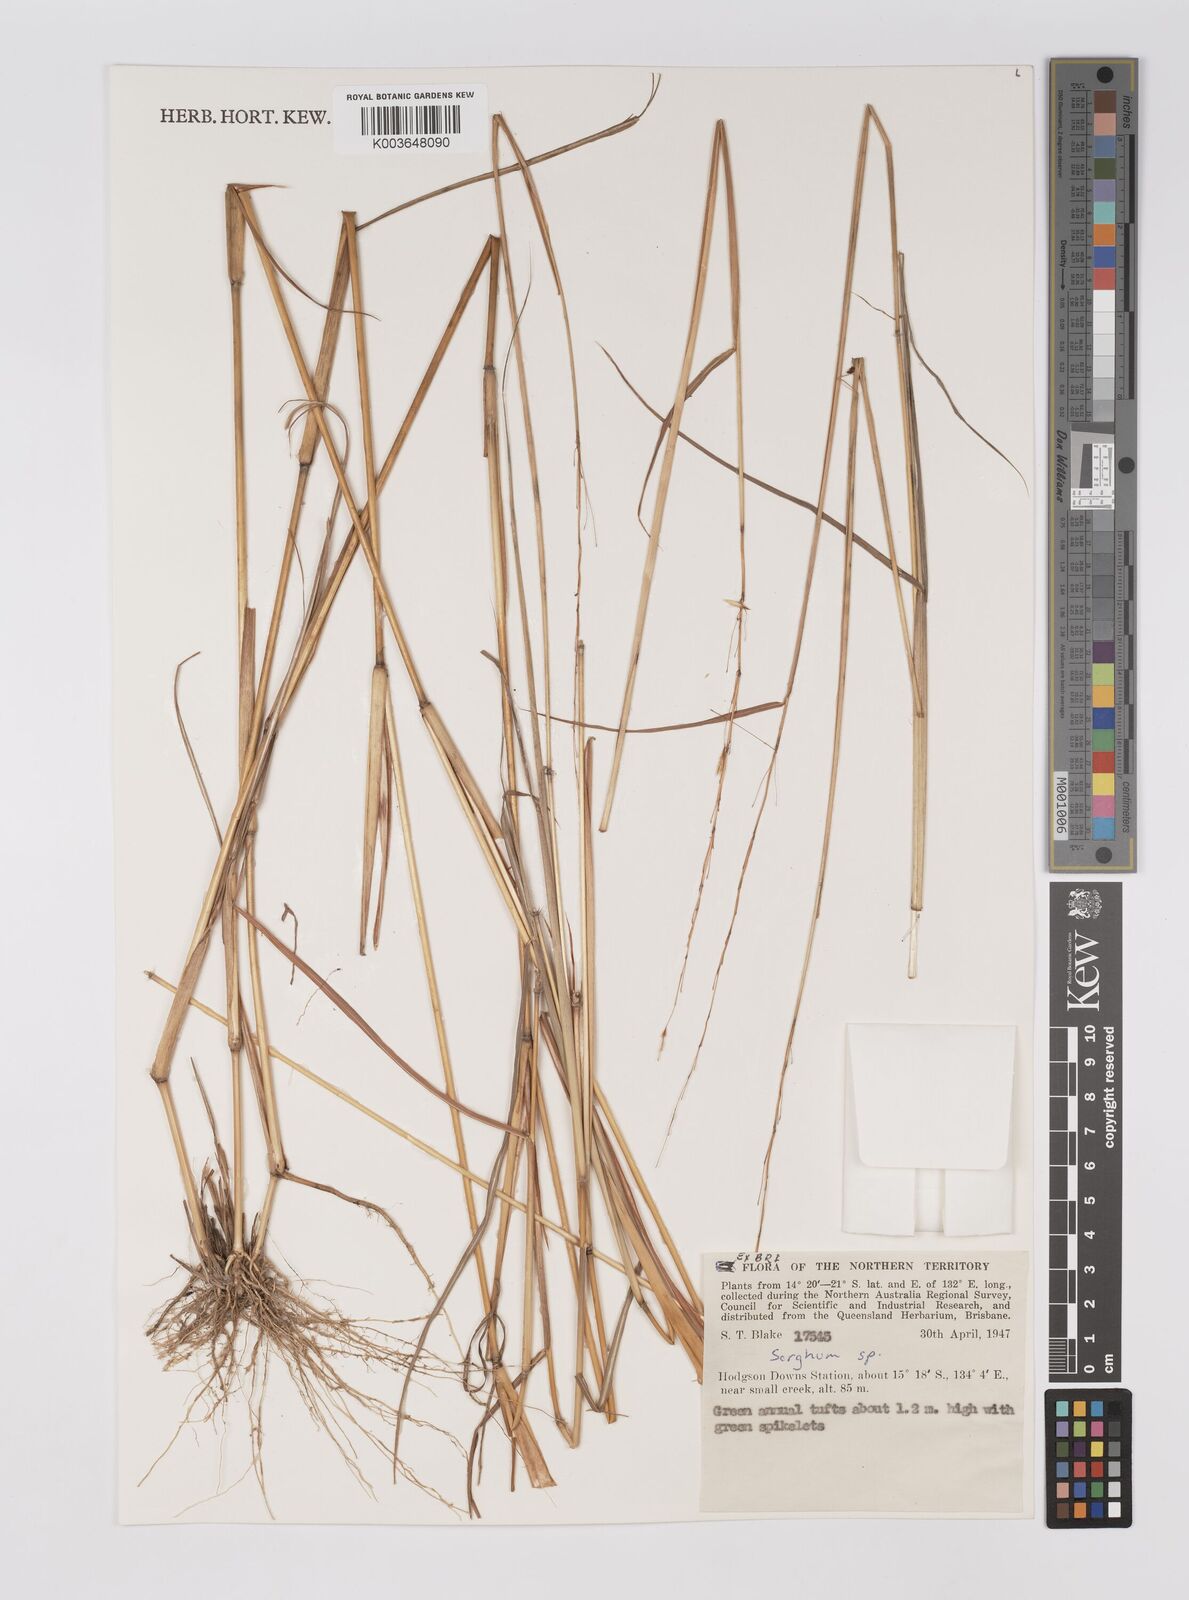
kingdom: Plantae
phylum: Tracheophyta
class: Liliopsida
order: Poales
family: Poaceae
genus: Sorghum
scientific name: Sorghum
